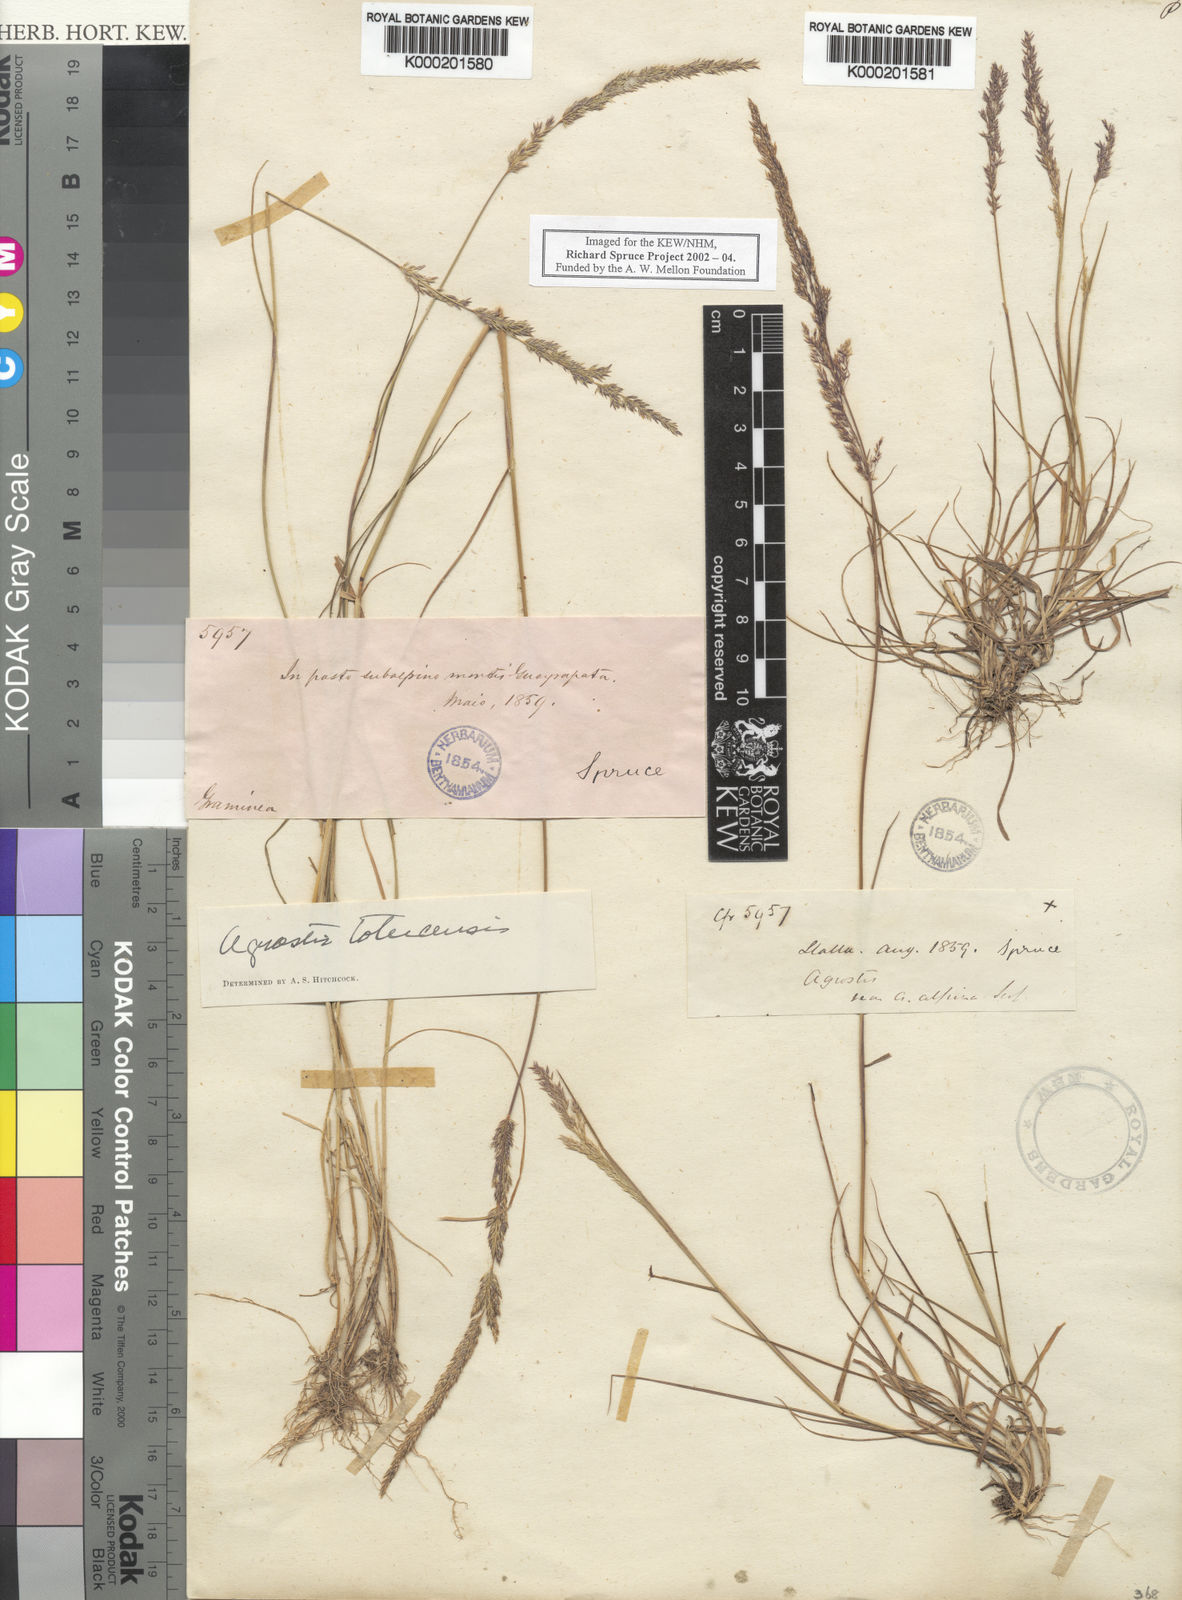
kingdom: Plantae
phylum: Tracheophyta
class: Liliopsida
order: Poales
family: Poaceae
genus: Agrostis
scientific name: Agrostis tolucensis
